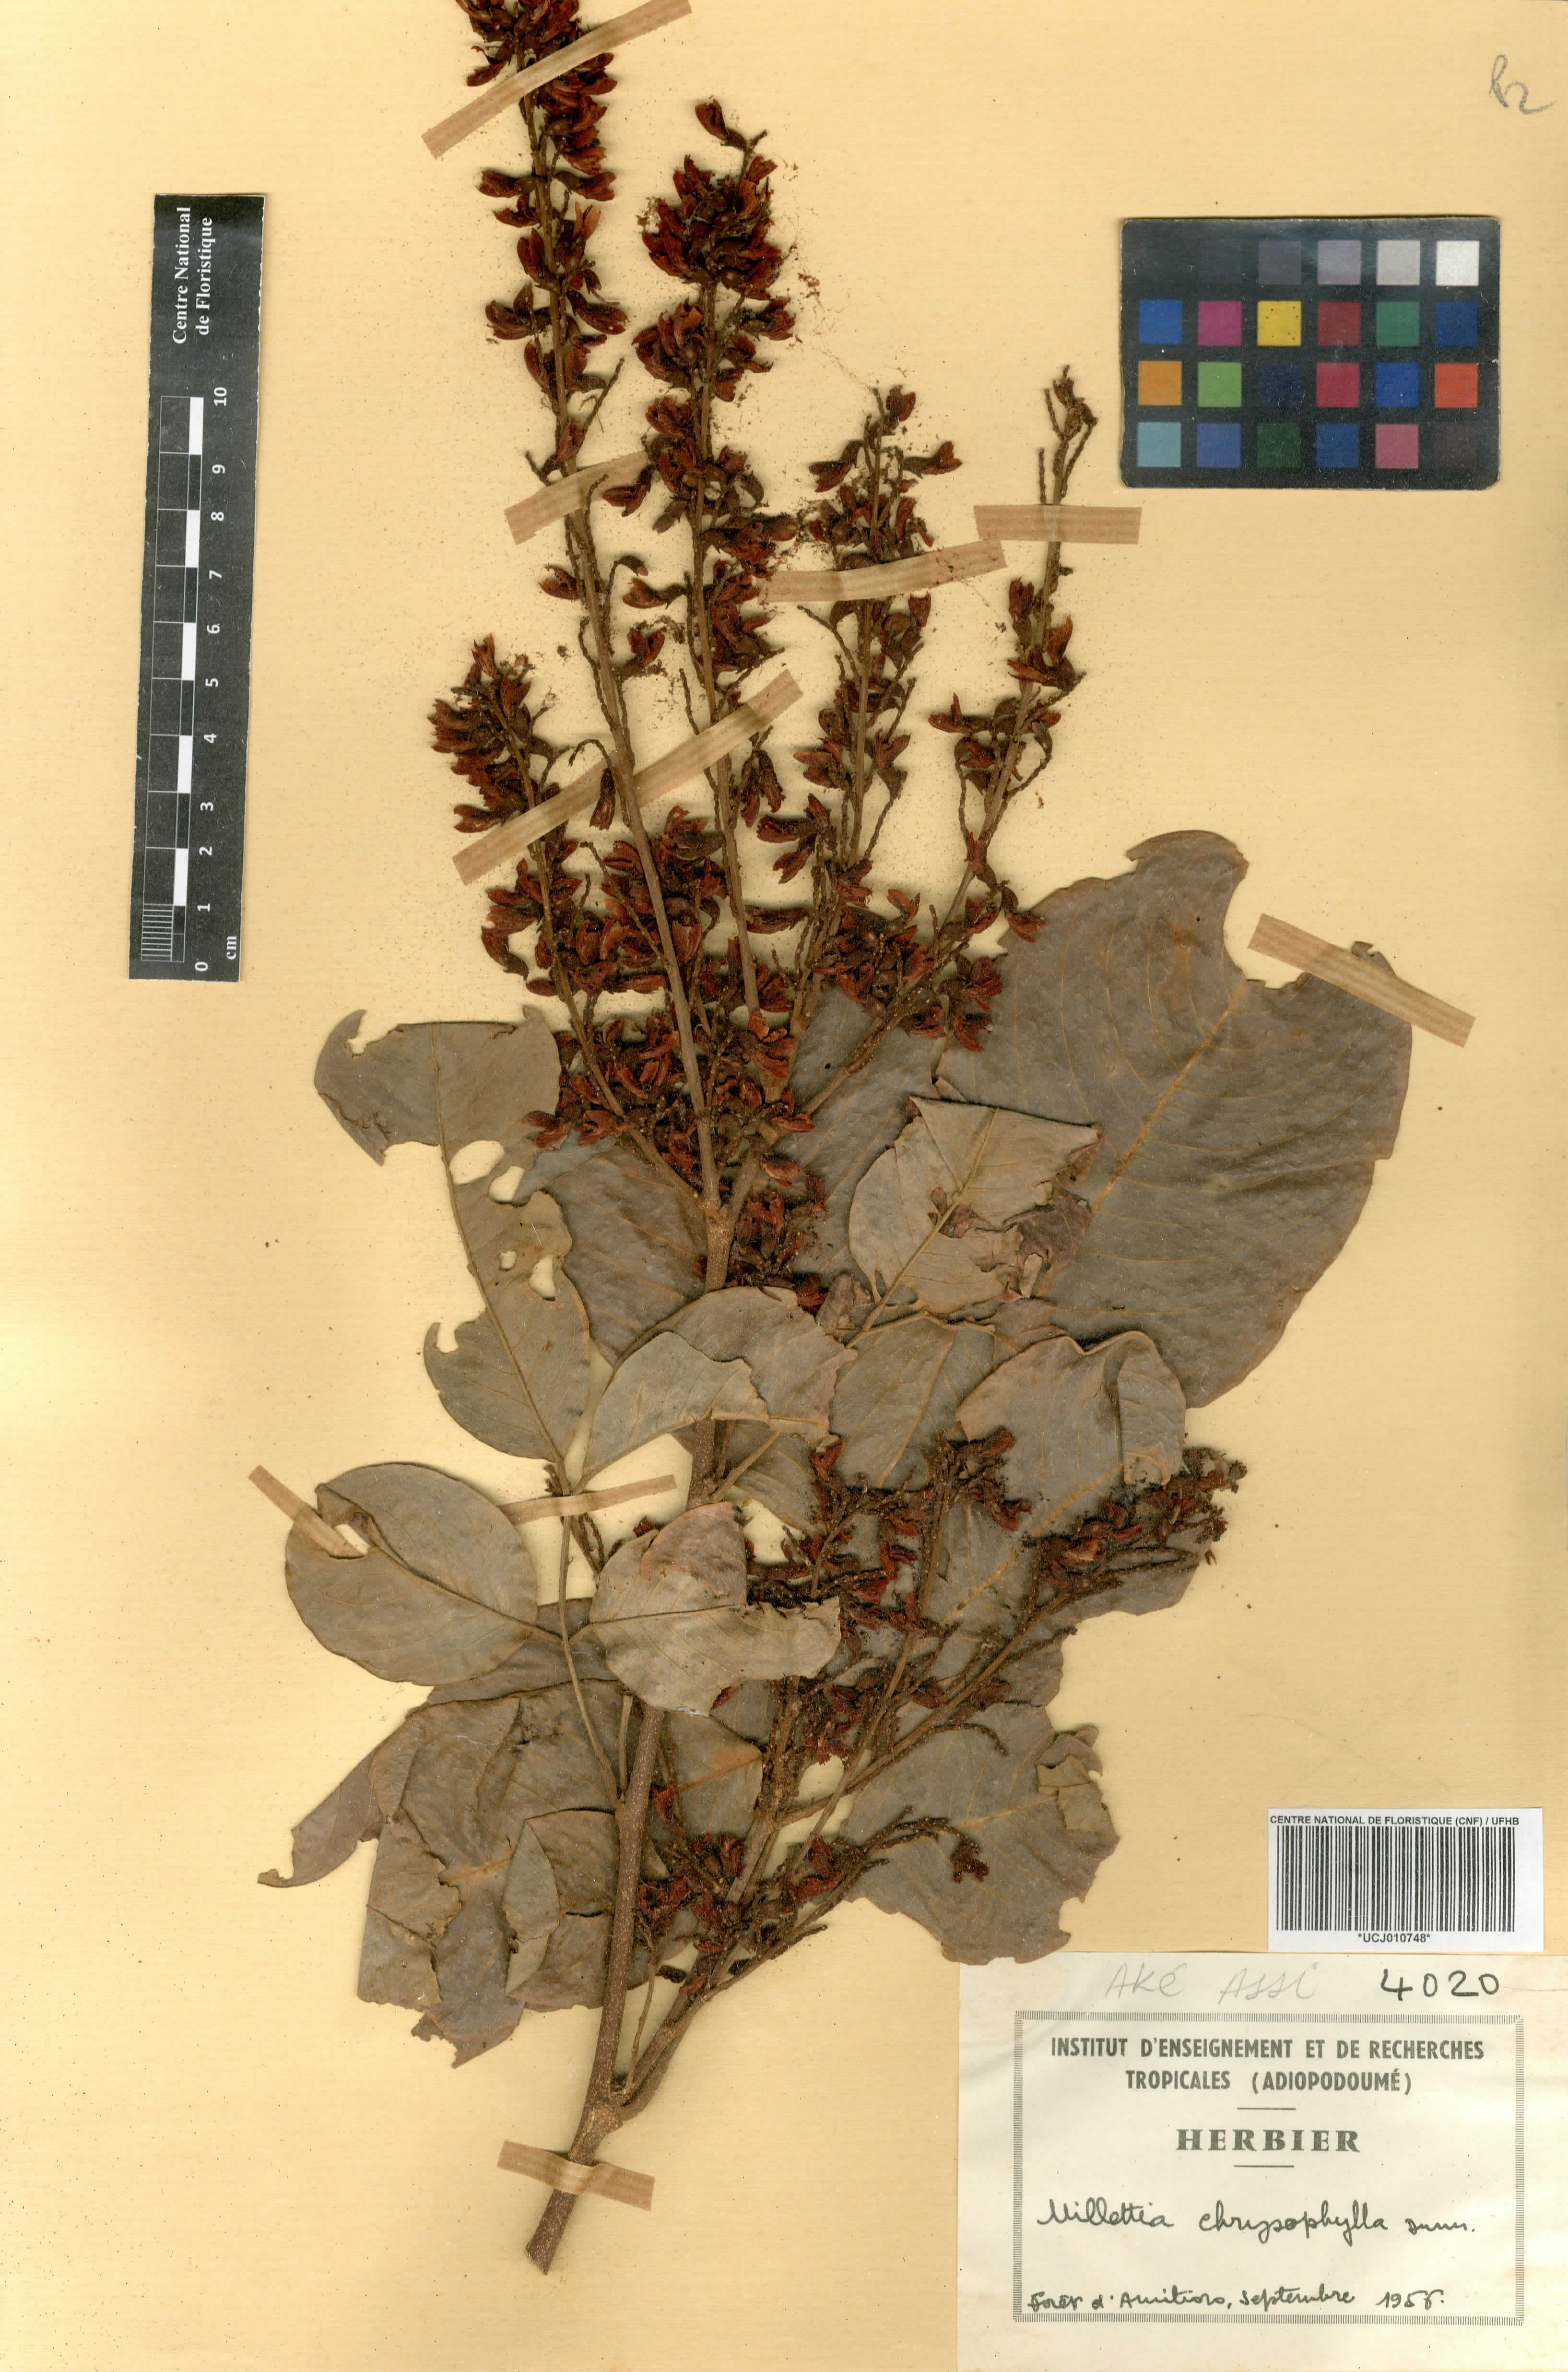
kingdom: Plantae
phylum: Tracheophyta
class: Magnoliopsida
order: Fabales
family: Fabaceae
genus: Millettia
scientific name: Millettia chrysophylla
